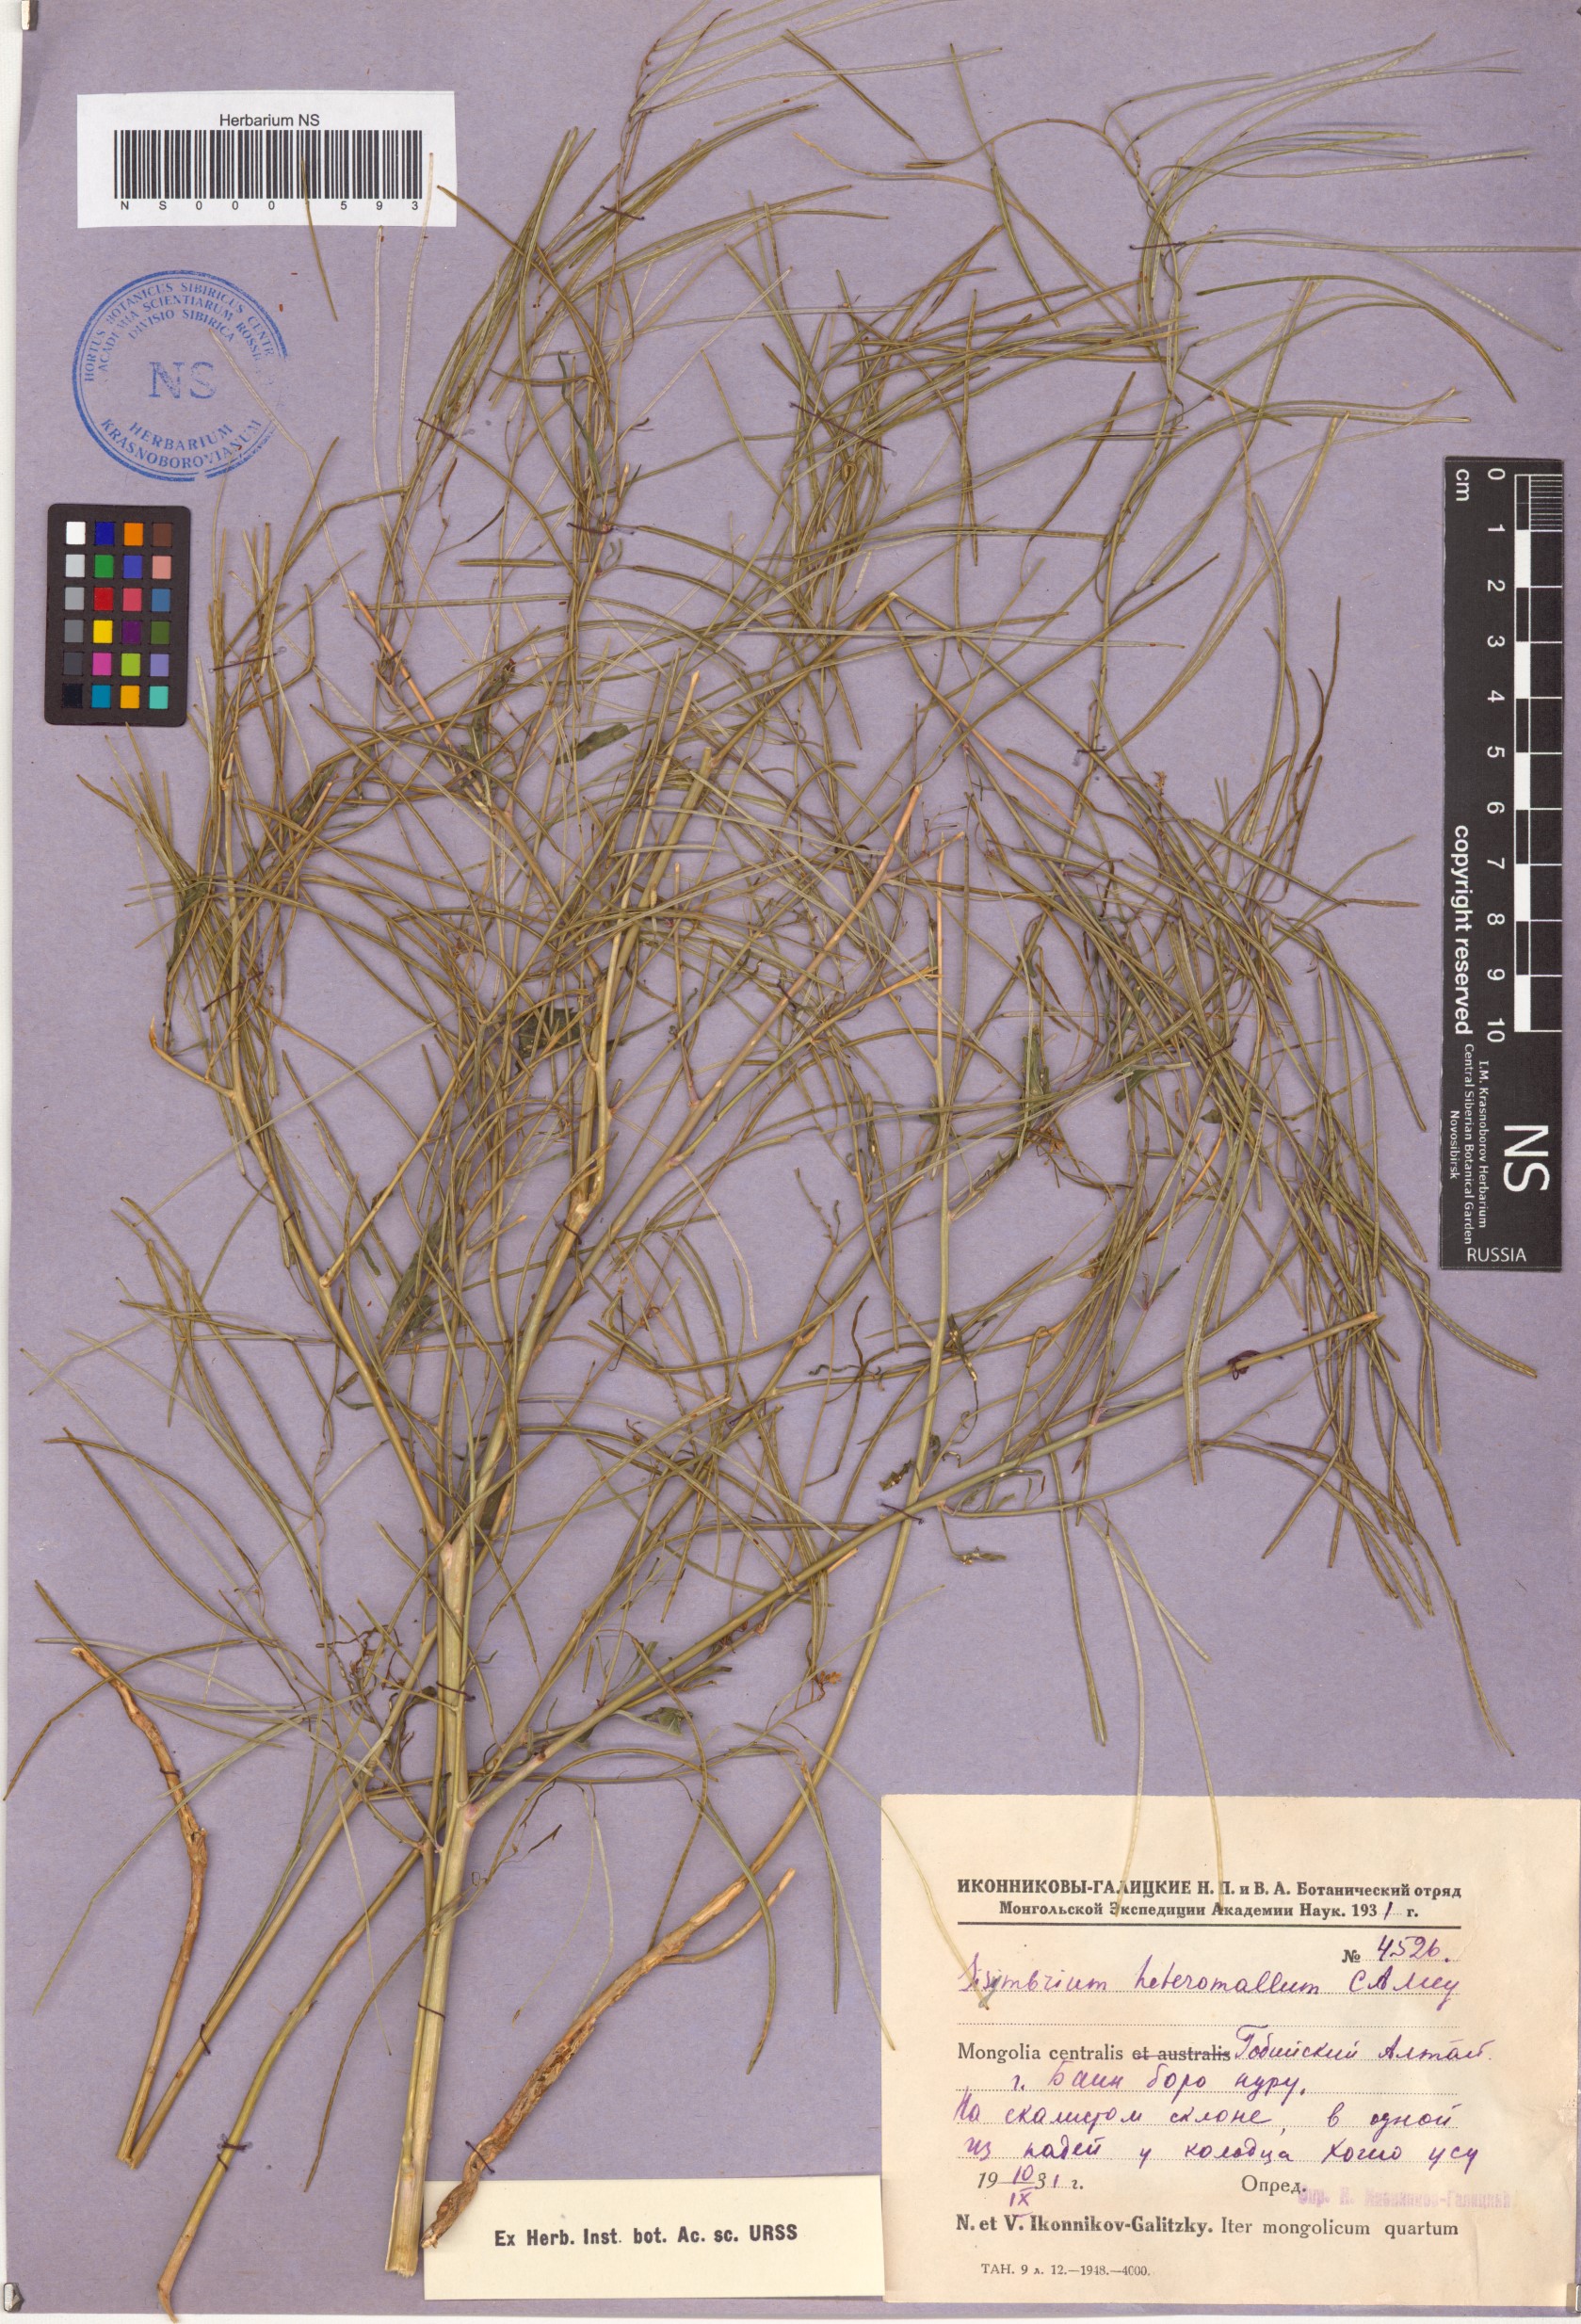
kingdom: Plantae
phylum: Tracheophyta
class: Magnoliopsida
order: Brassicales
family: Brassicaceae
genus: Sisymbrium
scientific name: Sisymbrium heteromallum
